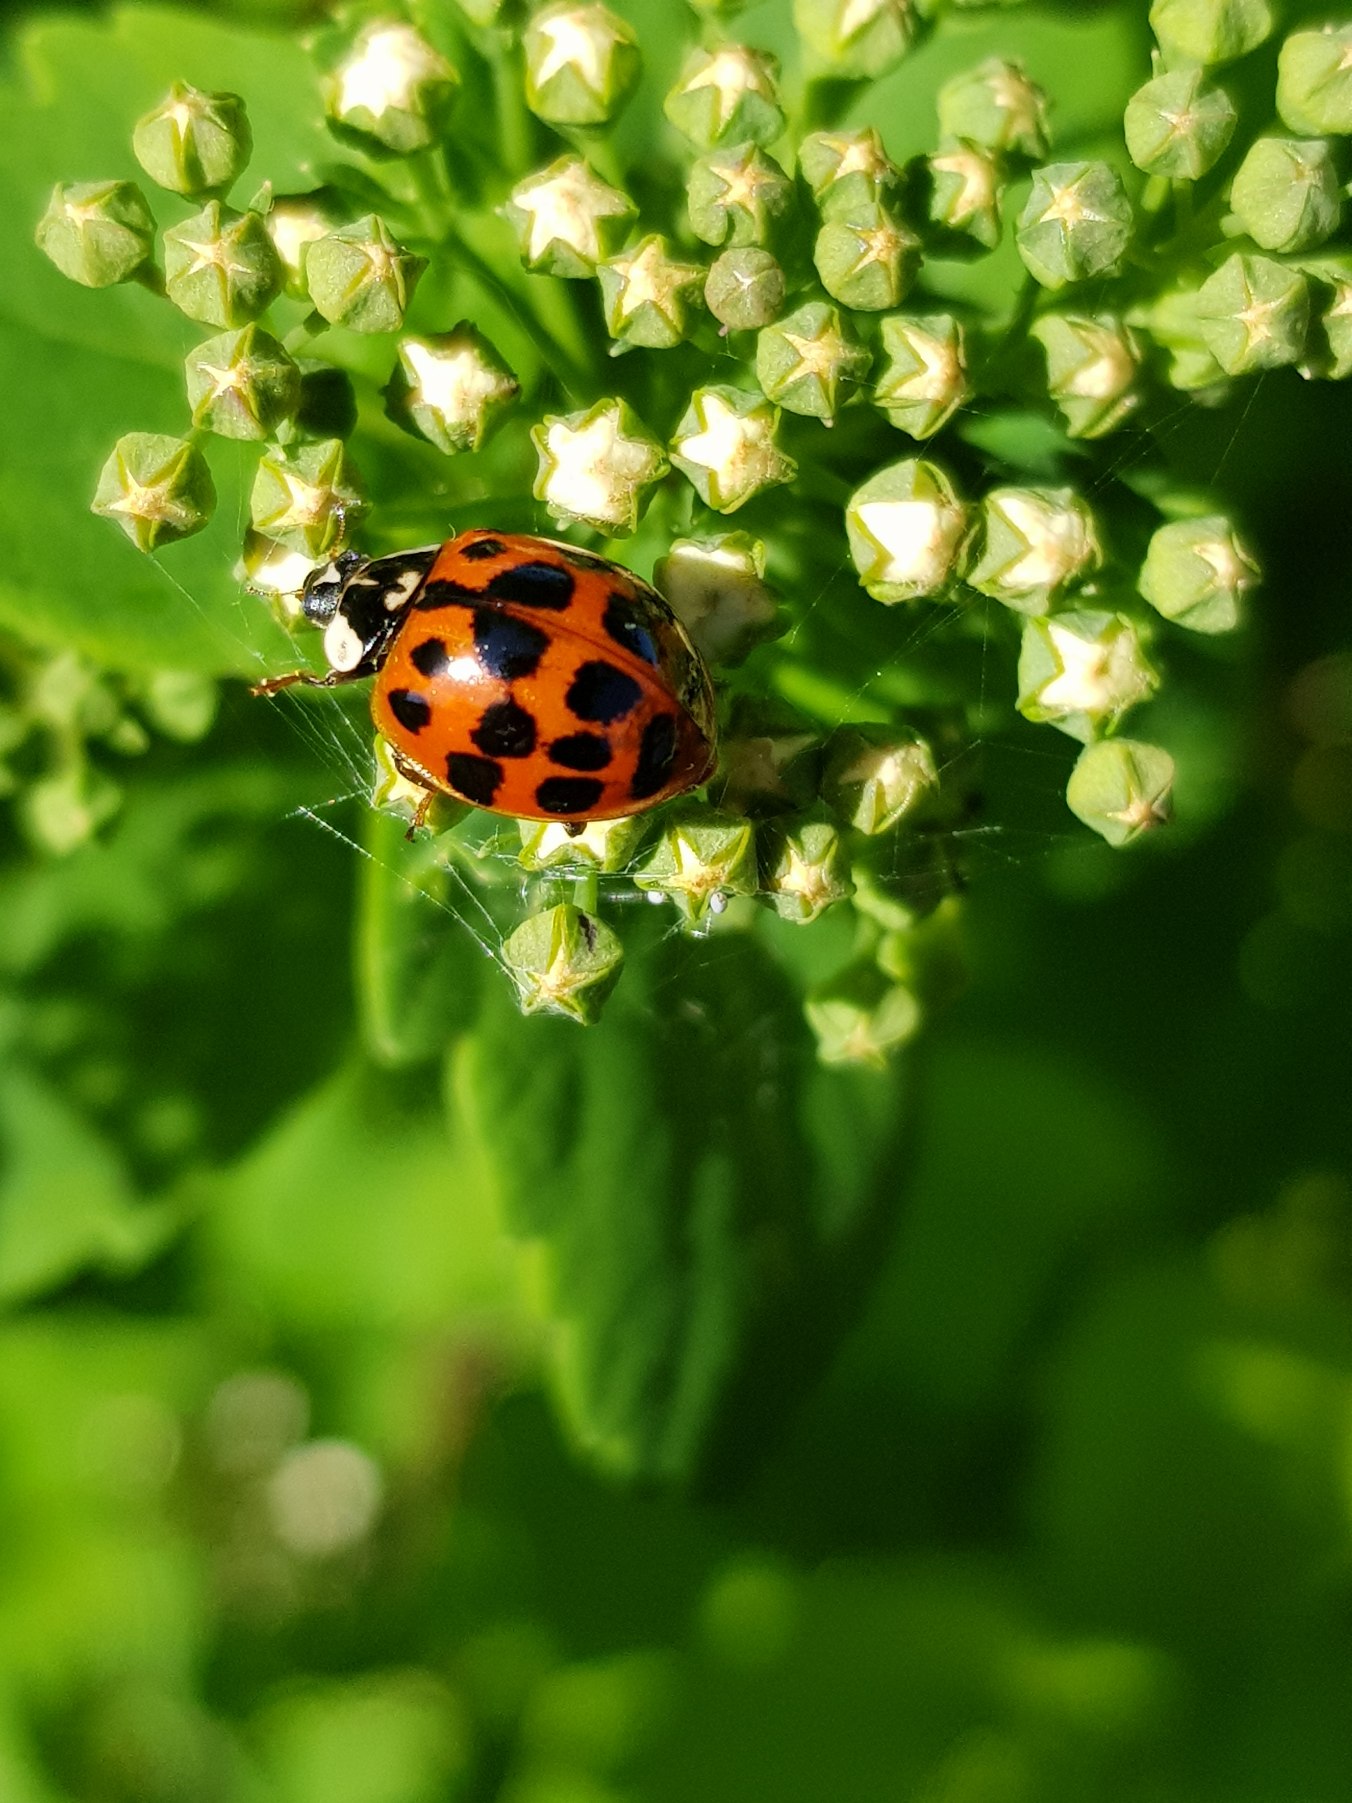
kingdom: Animalia
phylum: Arthropoda
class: Insecta
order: Coleoptera
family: Coccinellidae
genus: Harmonia
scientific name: Harmonia axyridis
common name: Harlekinmariehøne
